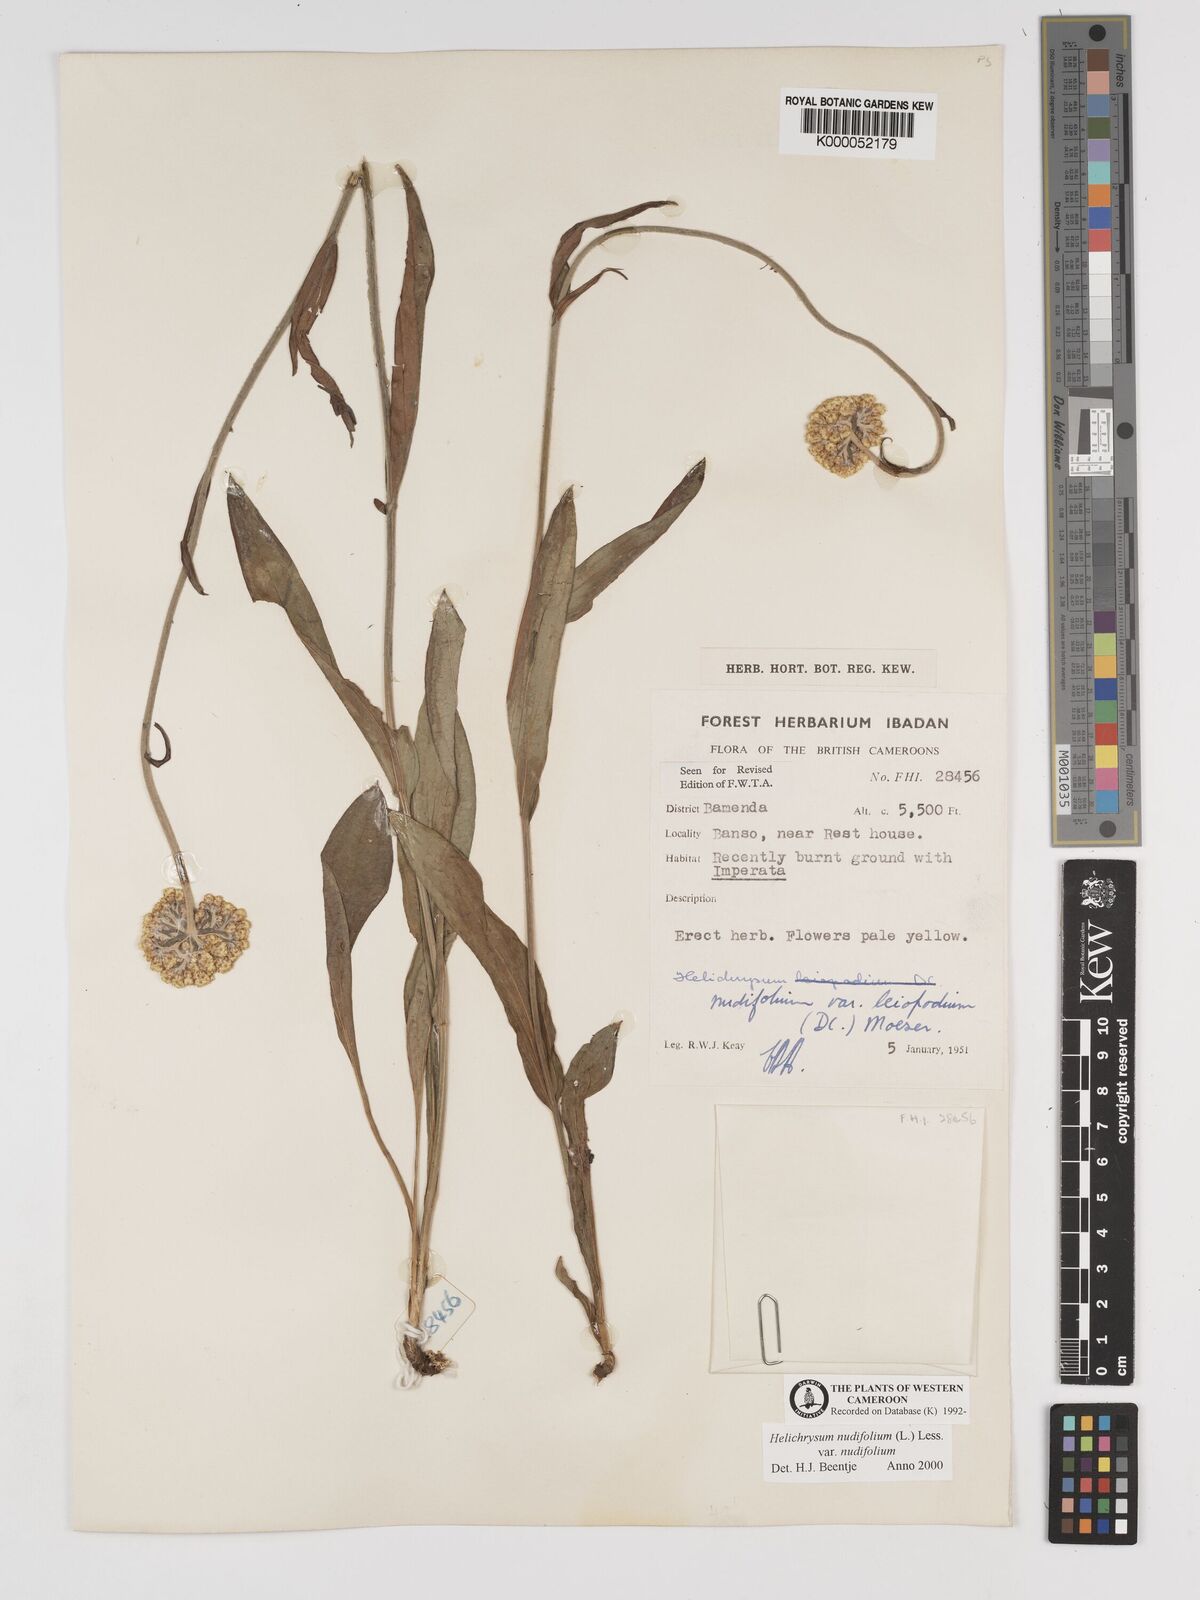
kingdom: Plantae
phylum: Tracheophyta
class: Magnoliopsida
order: Asterales
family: Asteraceae
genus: Helichrysum
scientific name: Helichrysum nudifolium
